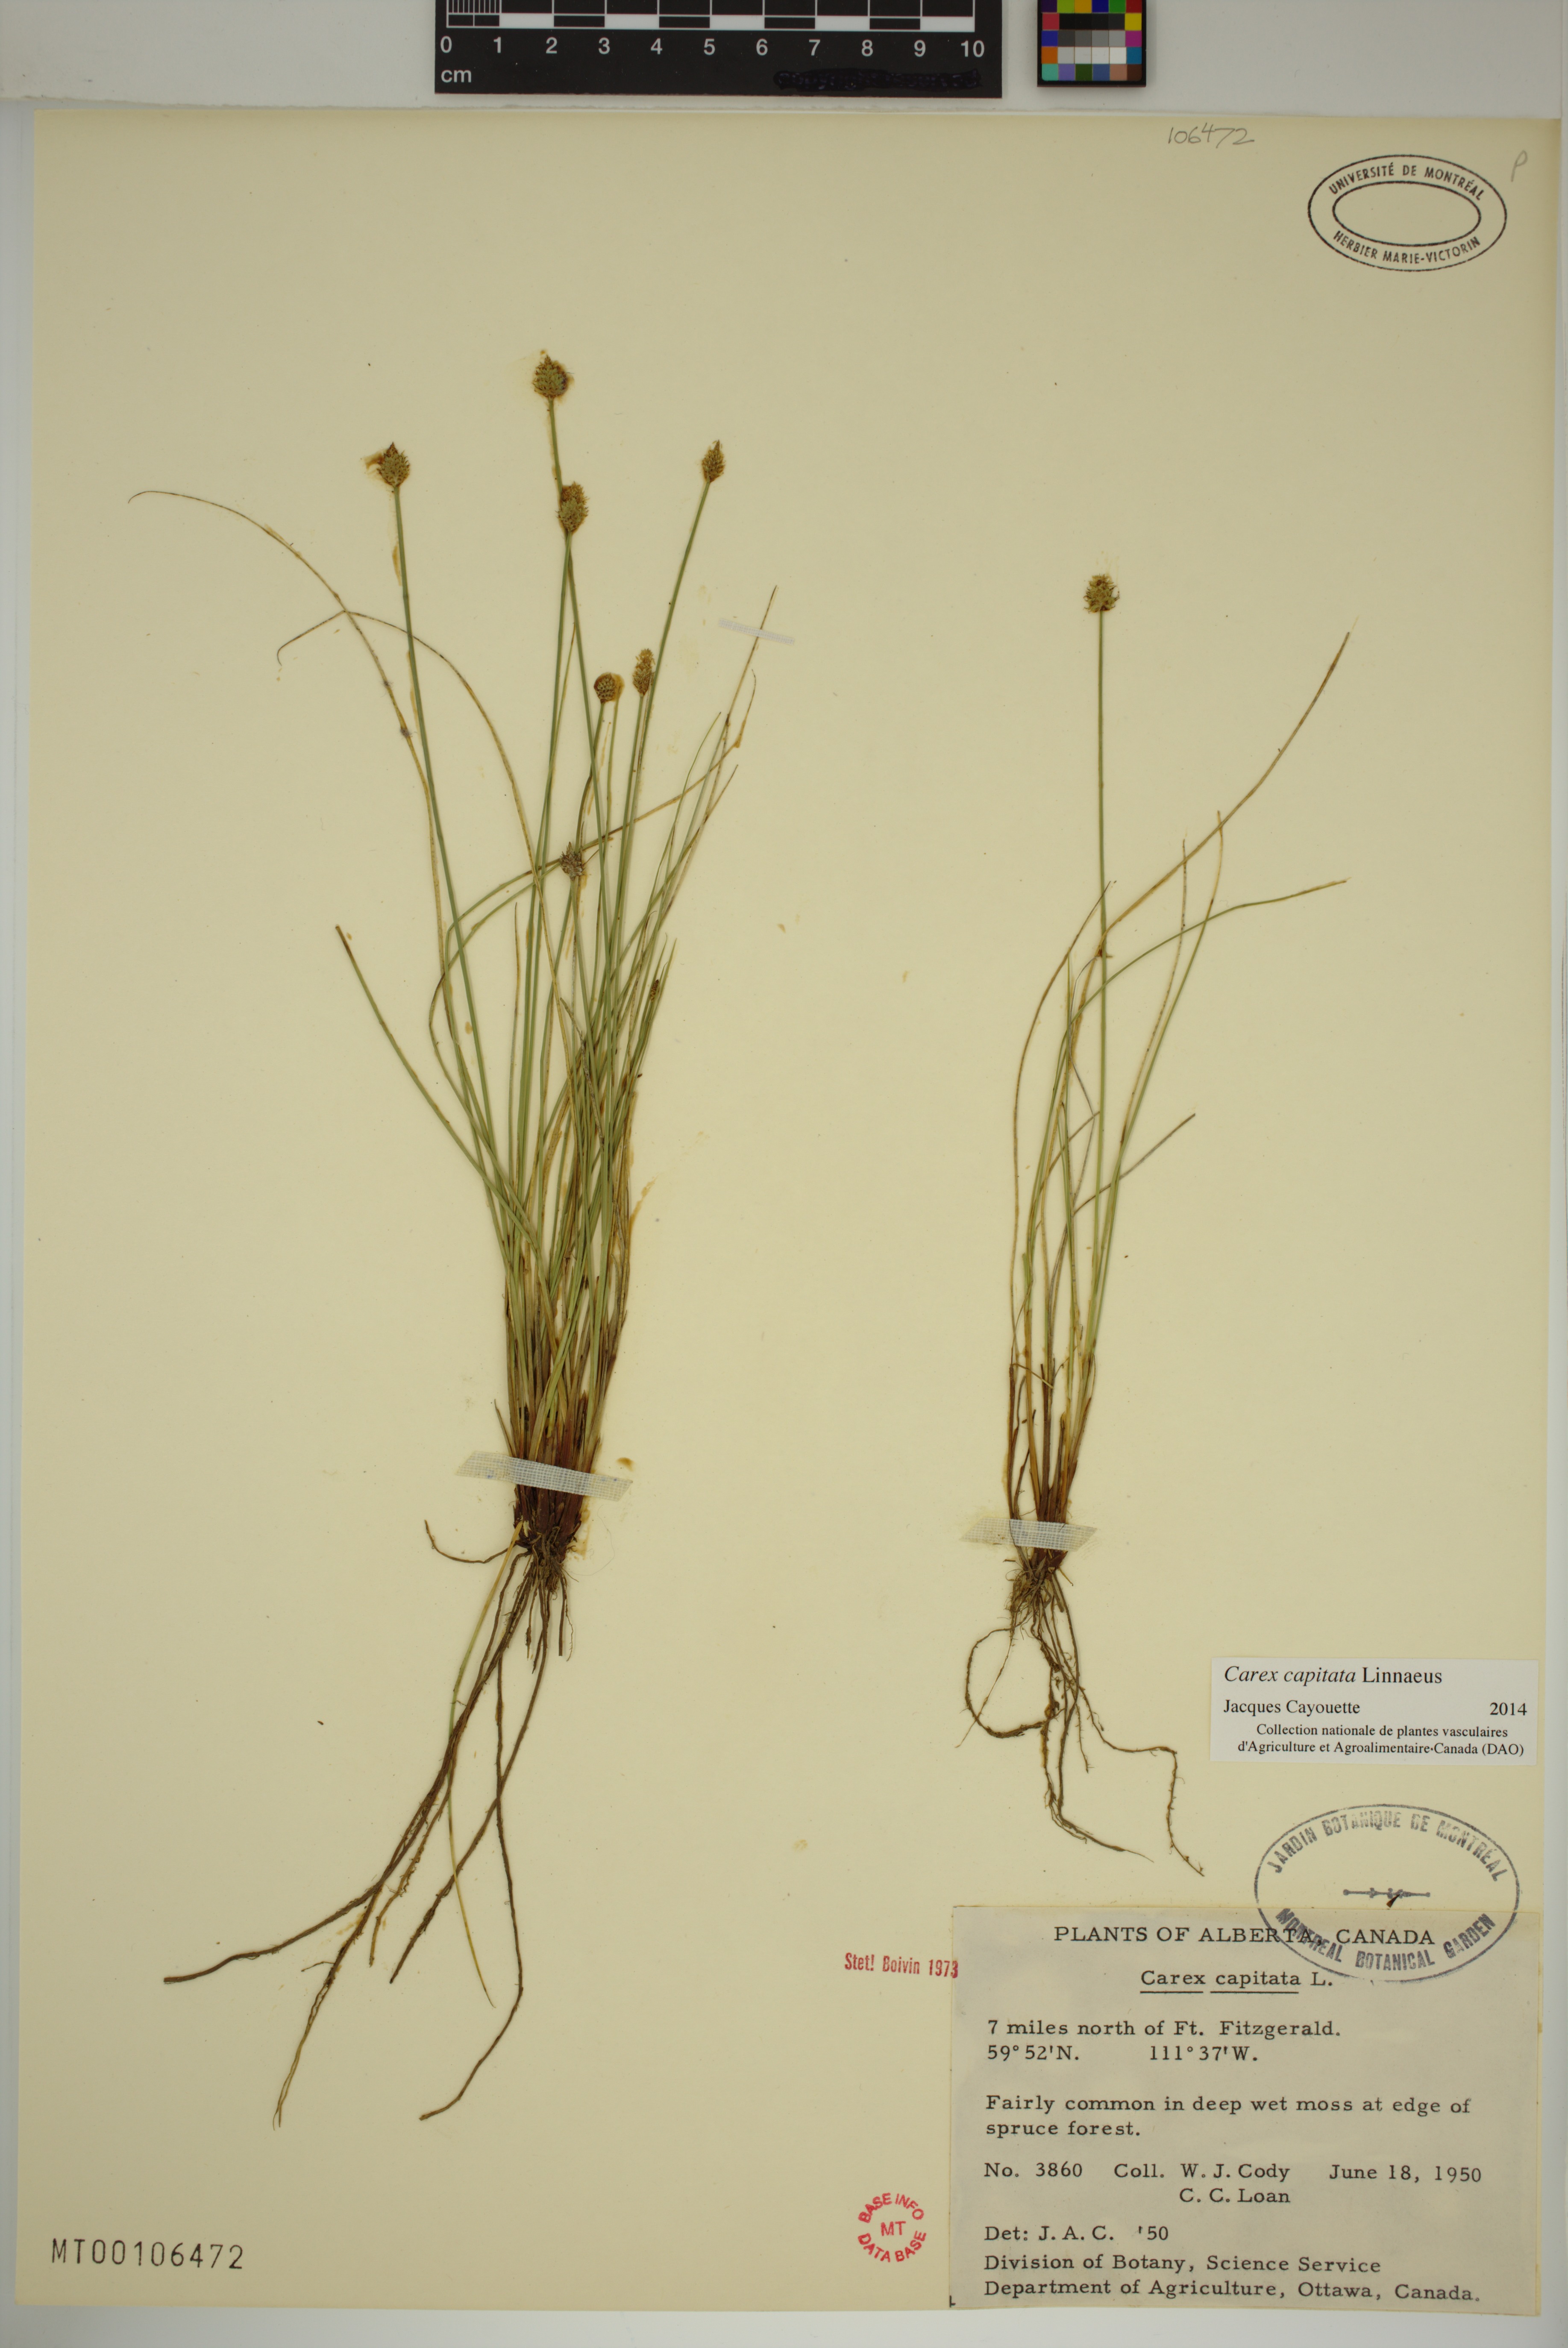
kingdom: Plantae
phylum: Tracheophyta
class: Liliopsida
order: Poales
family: Cyperaceae
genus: Carex
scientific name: Carex capitata
